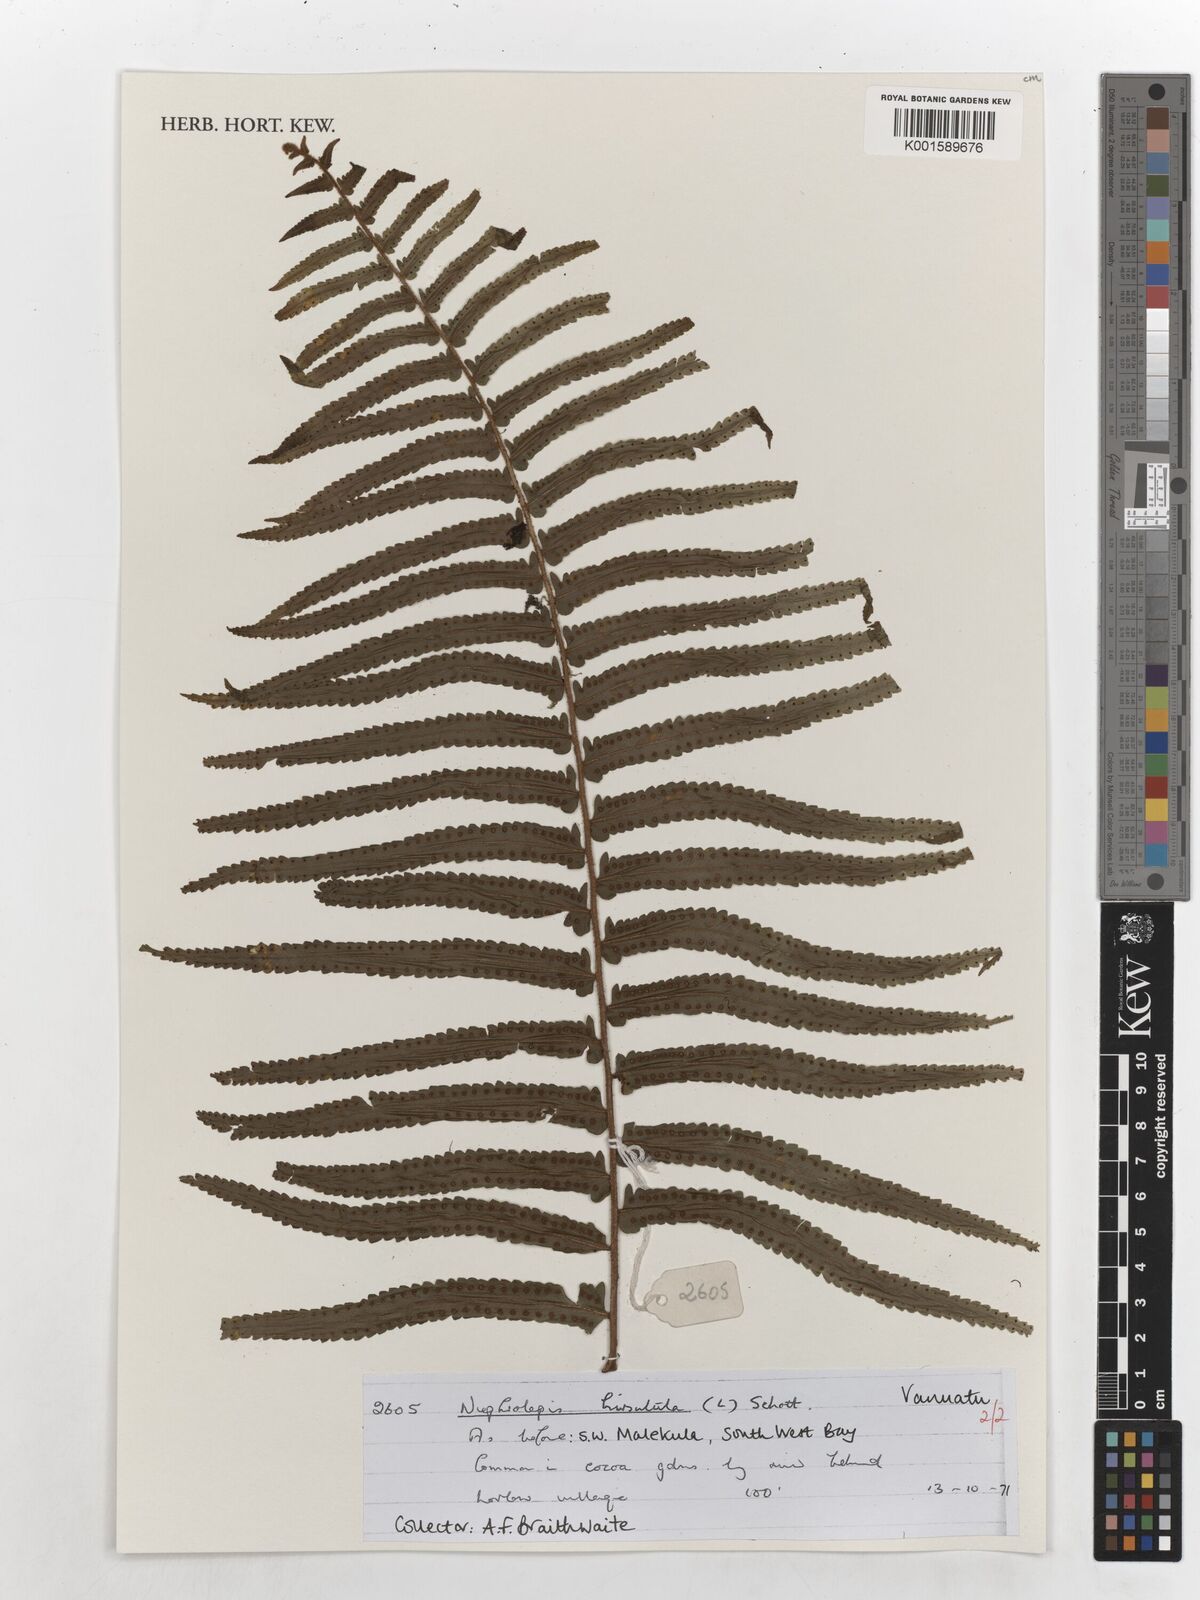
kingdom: Plantae
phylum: Tracheophyta
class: Polypodiopsida
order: Polypodiales
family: Nephrolepidaceae
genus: Nephrolepis
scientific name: Nephrolepis hirsutula
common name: Asian sword fern
